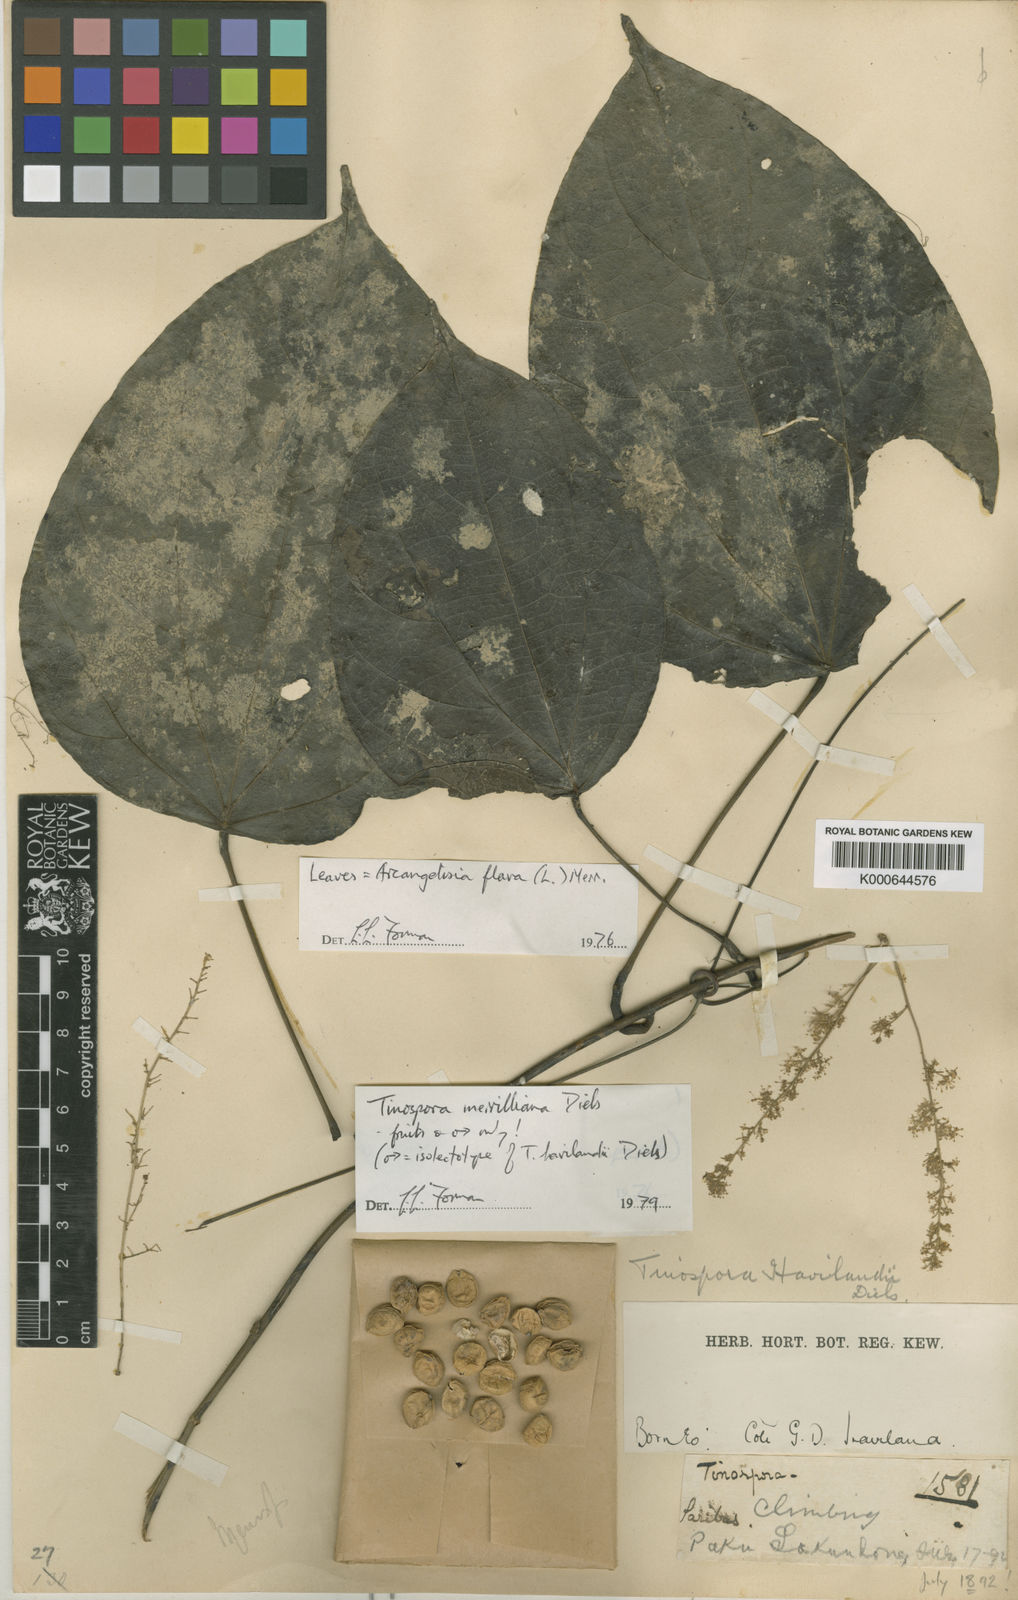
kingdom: Plantae
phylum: Tracheophyta
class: Magnoliopsida
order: Ranunculales
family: Menispermaceae
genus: Tinospora
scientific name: Tinospora merrilliana
